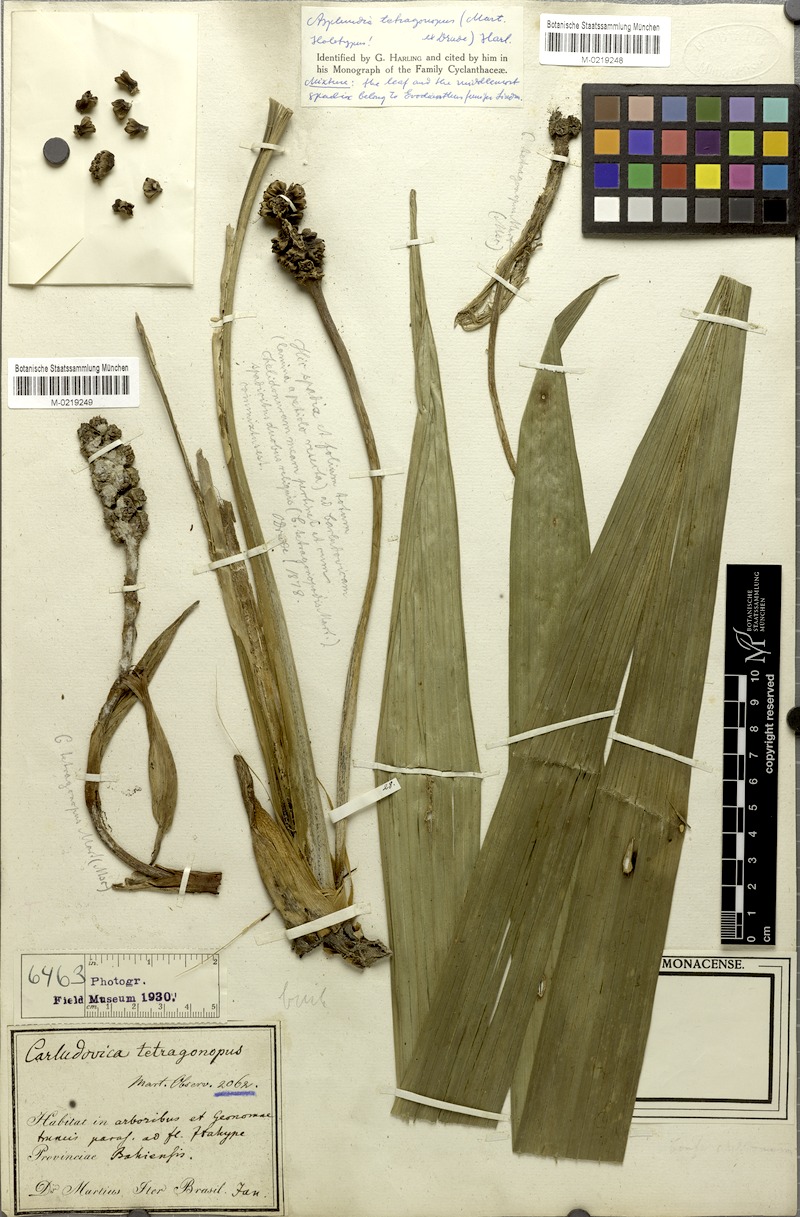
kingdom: Plantae
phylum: Tracheophyta
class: Liliopsida
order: Pandanales
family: Cyclanthaceae
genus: Evodianthus
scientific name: Evodianthus funifer
